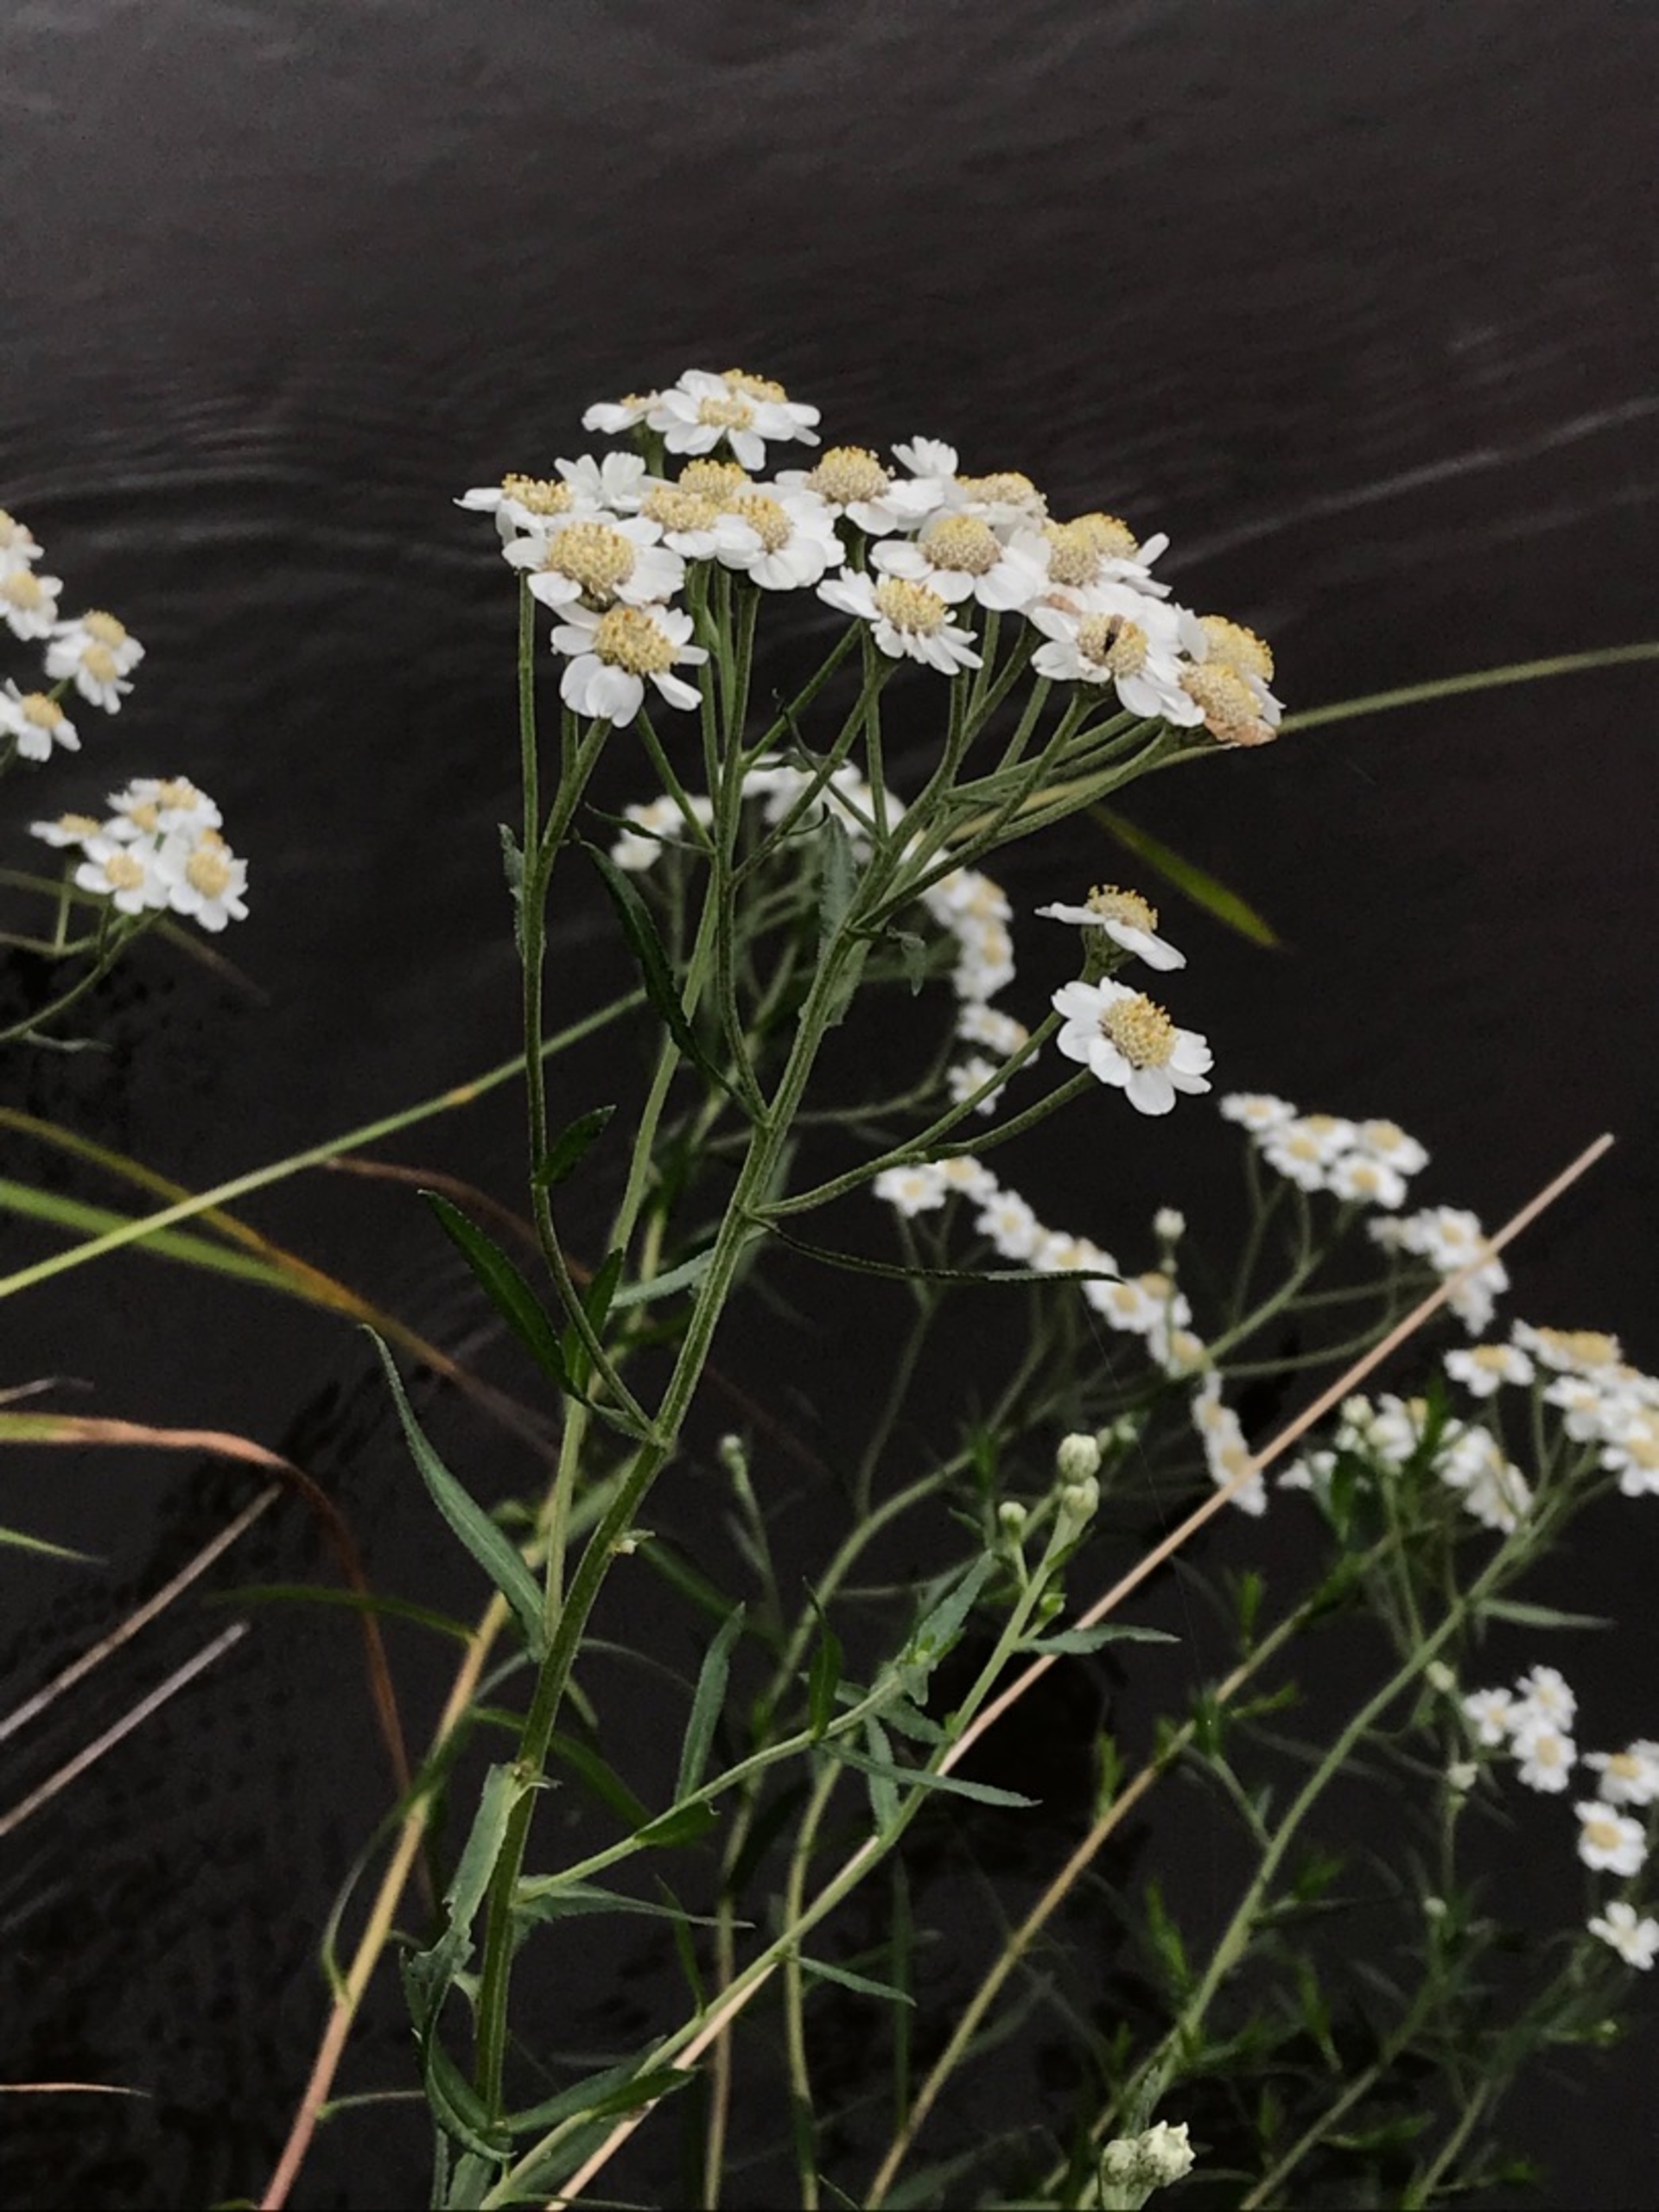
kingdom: Plantae
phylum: Tracheophyta
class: Magnoliopsida
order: Asterales
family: Asteraceae
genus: Achillea
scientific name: Achillea ptarmica
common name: Nyse-røllike
